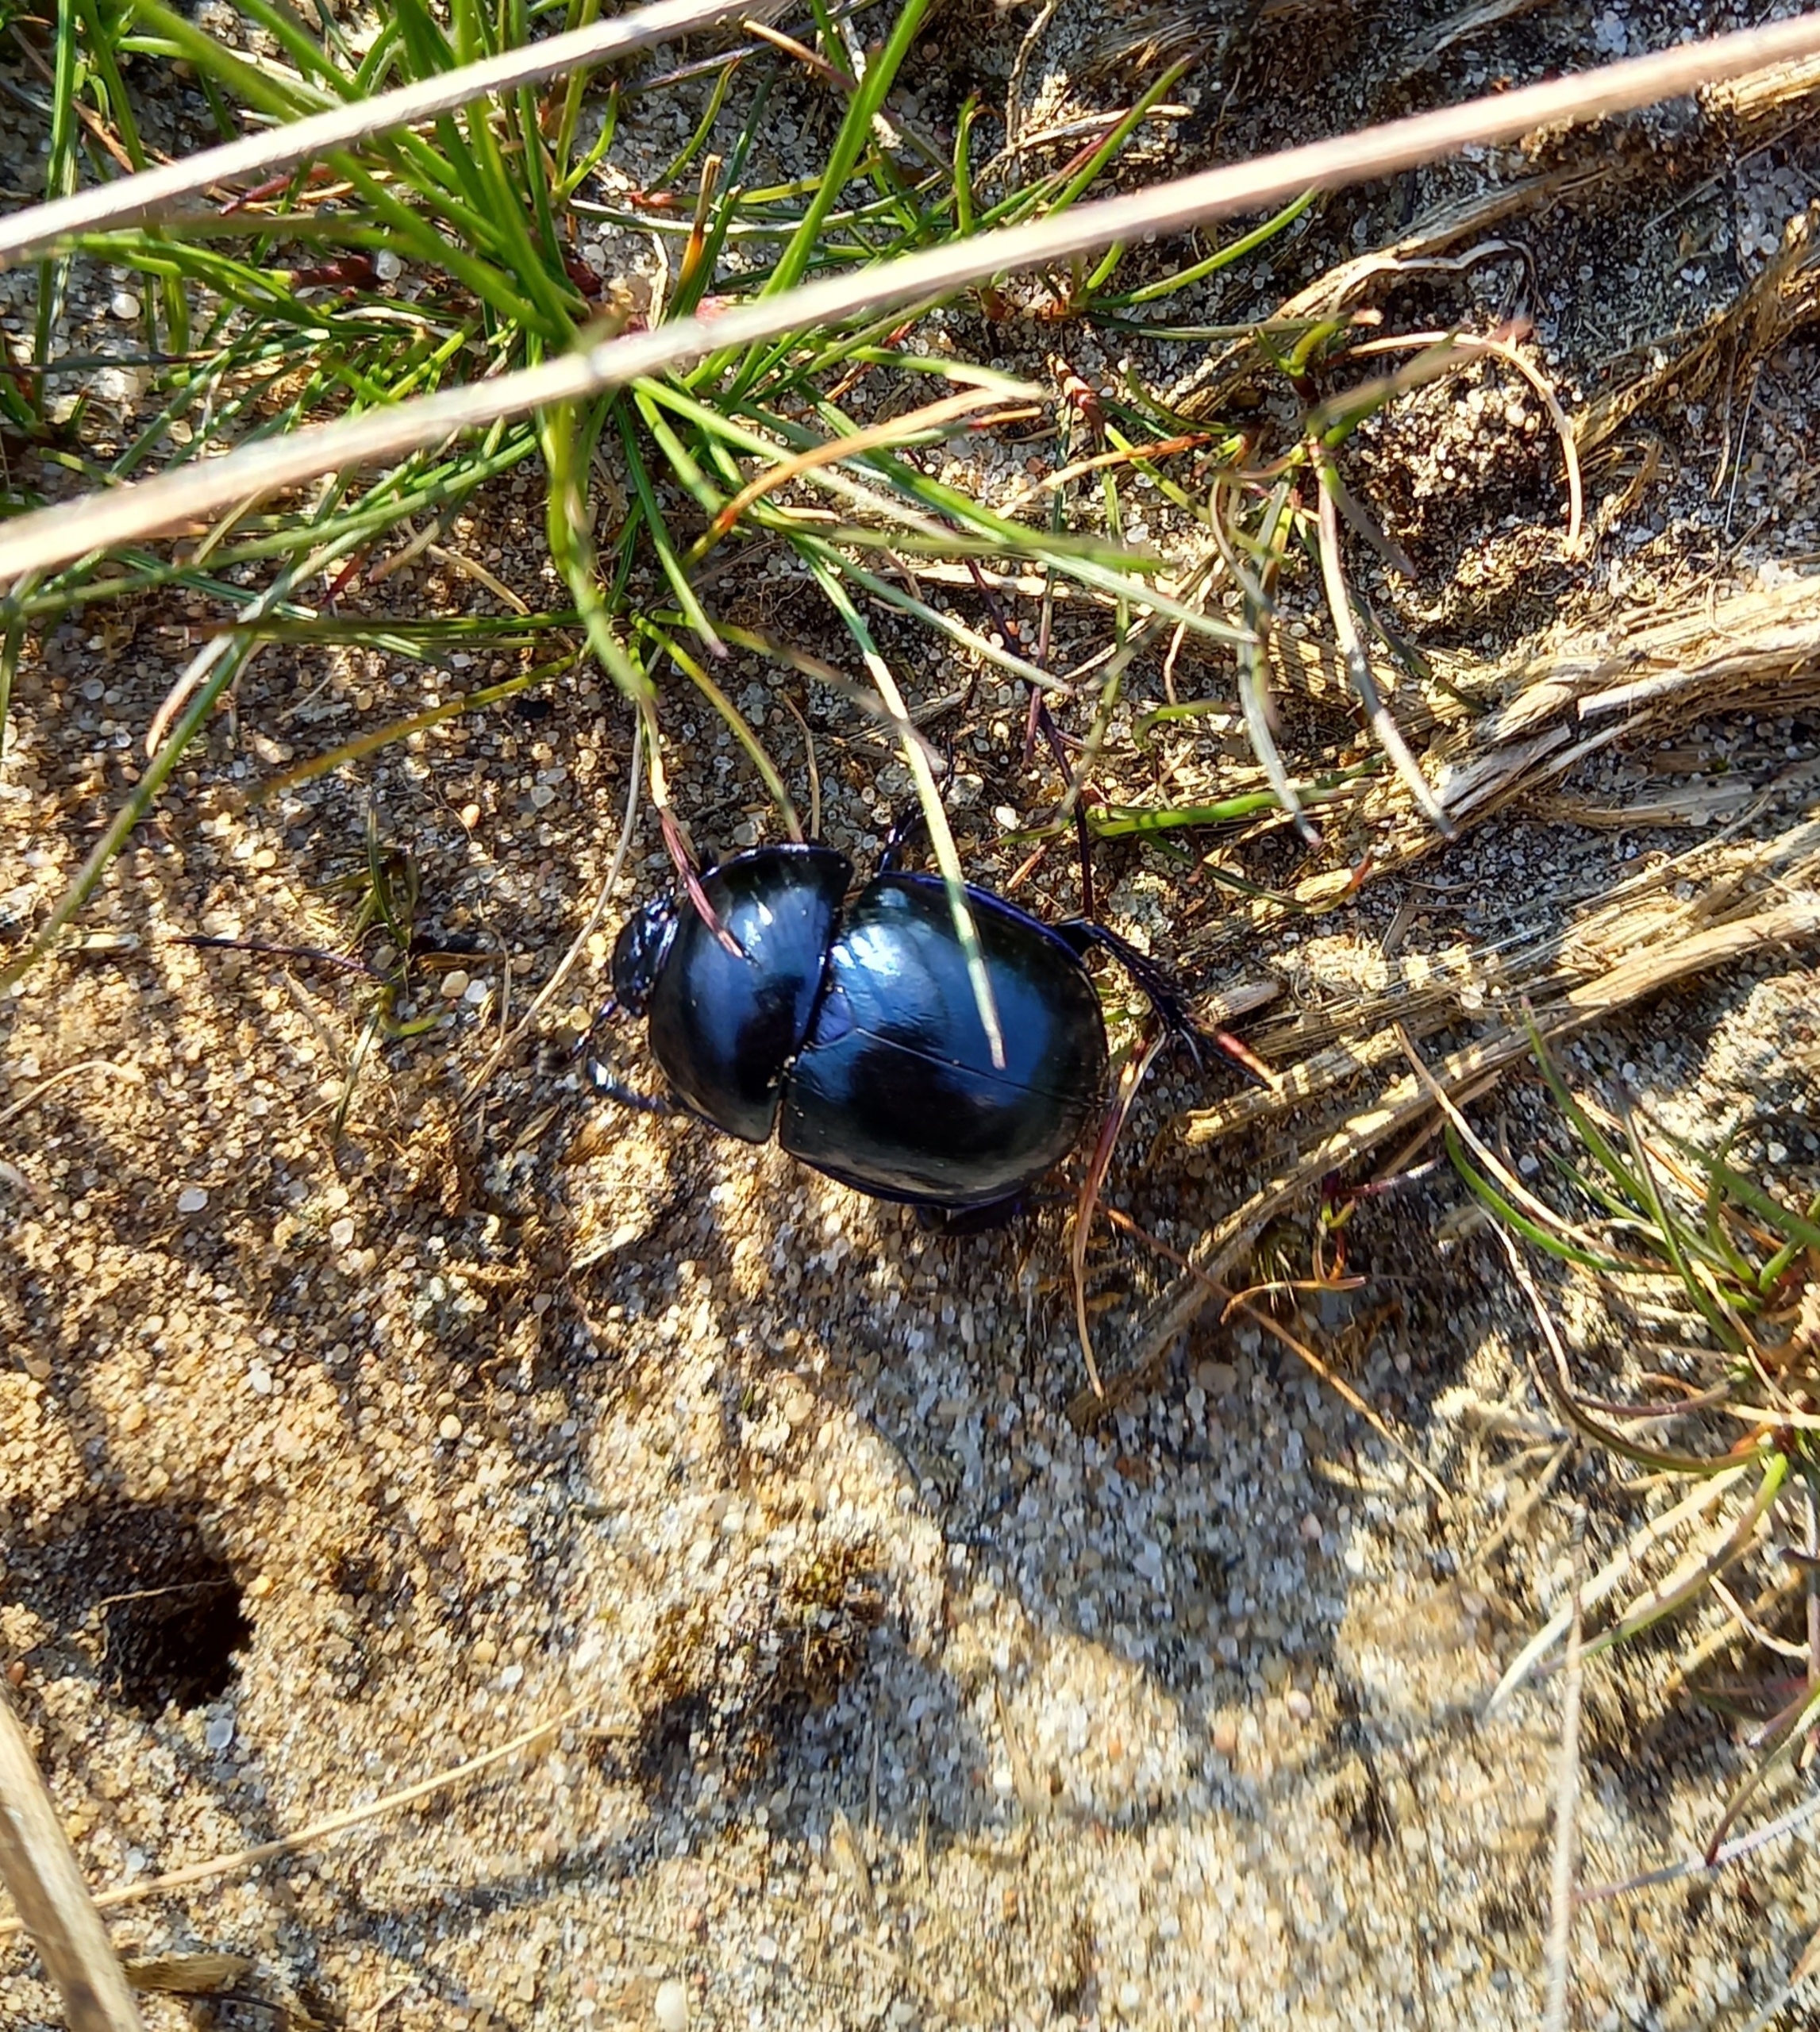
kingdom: Animalia
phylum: Arthropoda
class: Insecta
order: Coleoptera
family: Geotrupidae
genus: Trypocopris
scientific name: Trypocopris vernalis
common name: Glat skarnbasse
